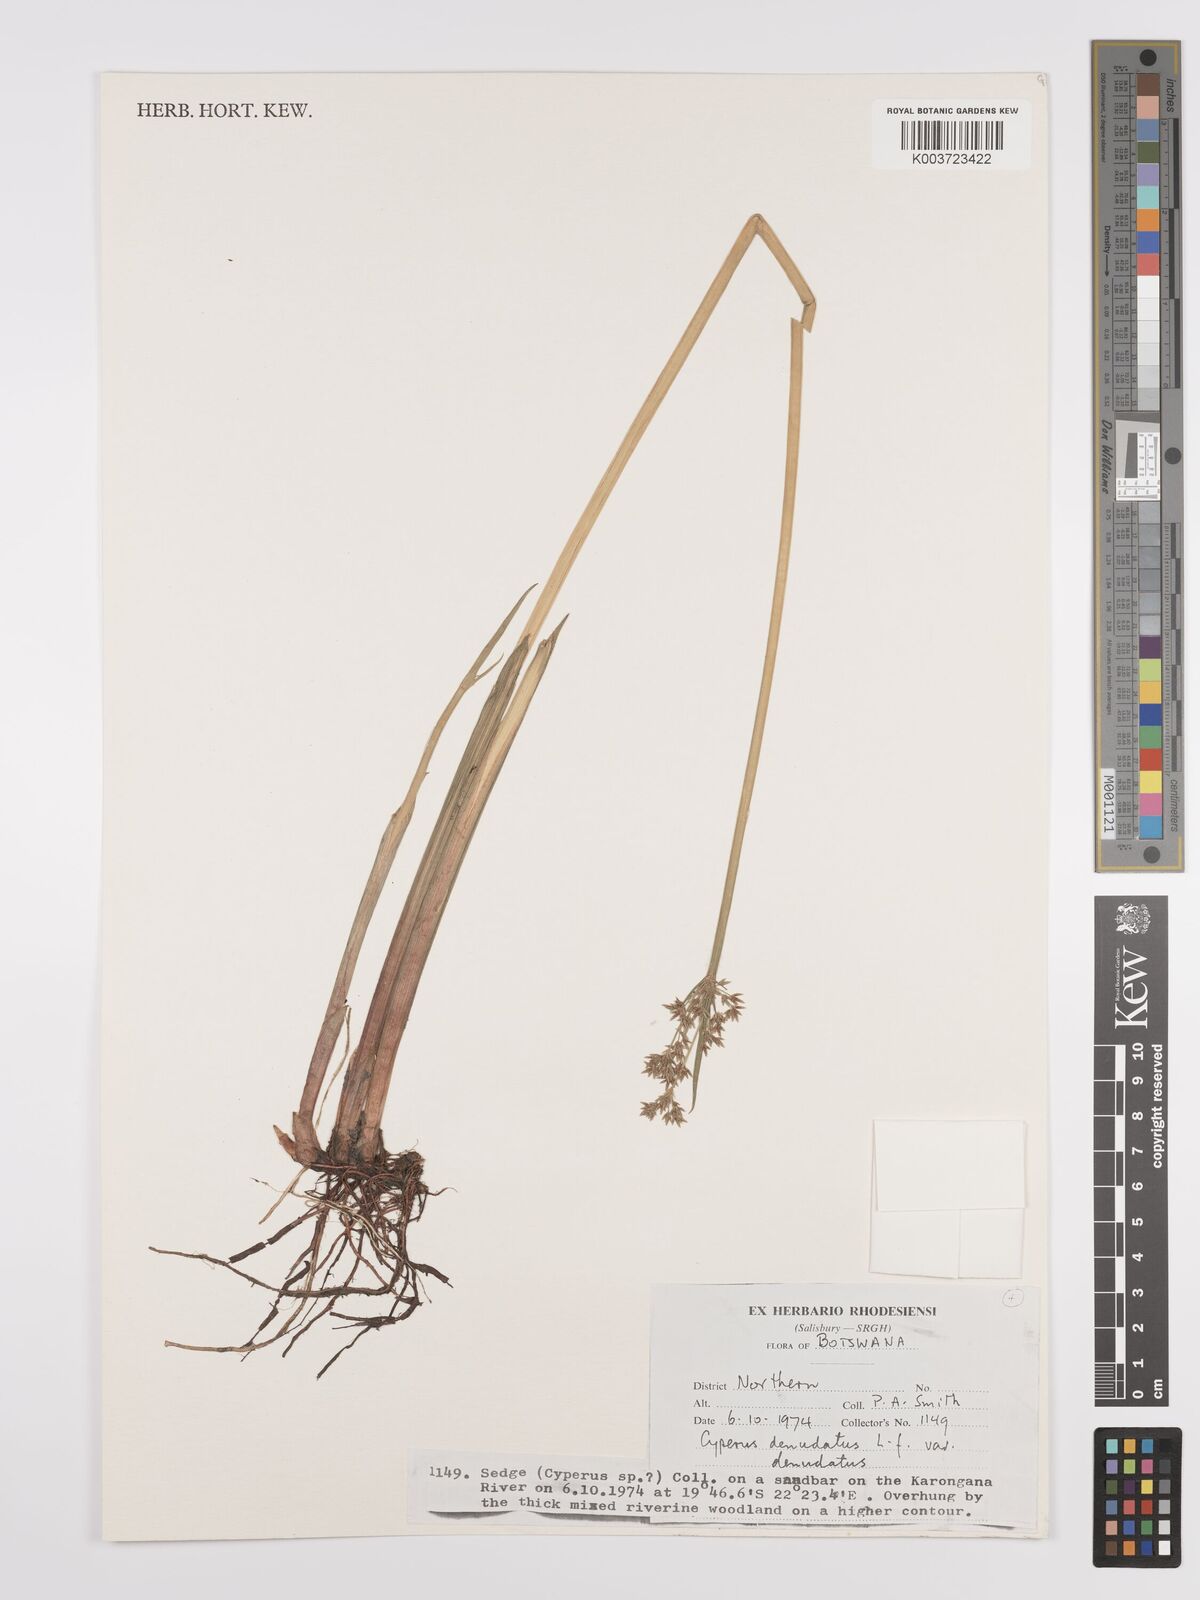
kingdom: Plantae
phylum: Tracheophyta
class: Liliopsida
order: Poales
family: Cyperaceae
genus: Cyperus
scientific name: Cyperus denudatus
